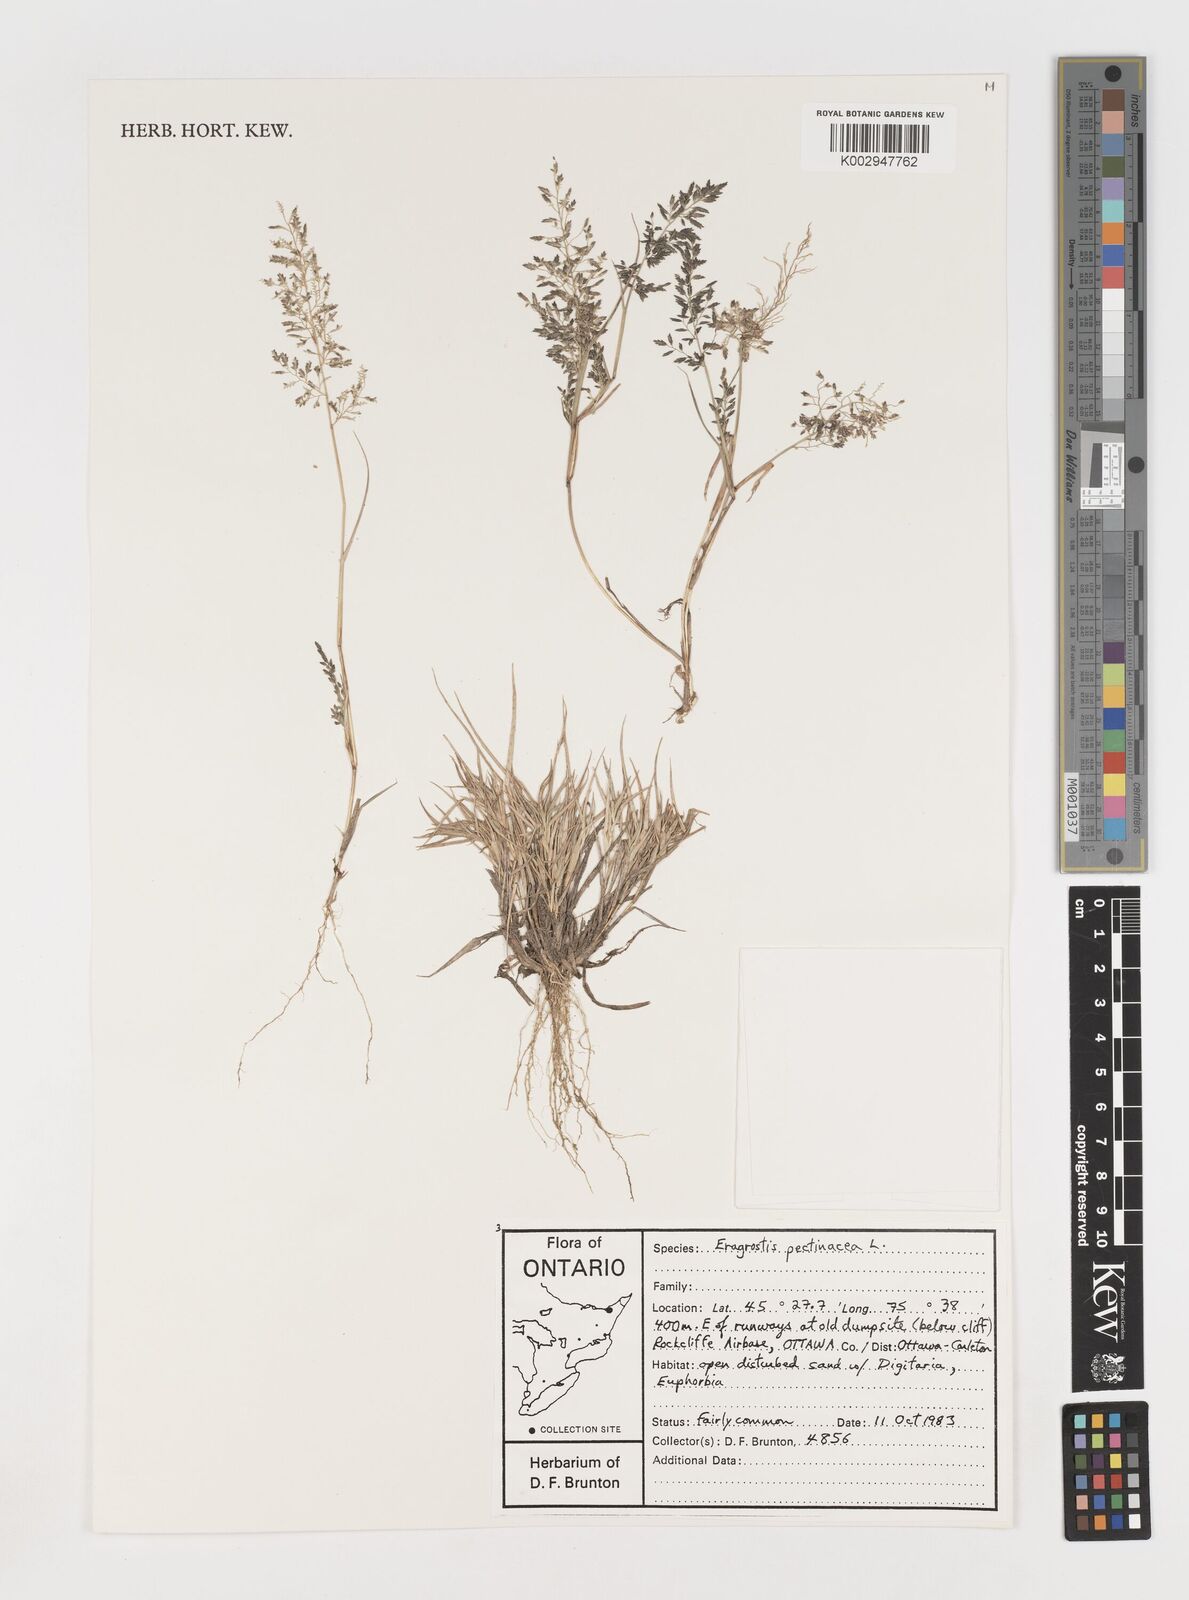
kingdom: Plantae
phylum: Tracheophyta
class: Liliopsida
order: Poales
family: Poaceae
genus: Eragrostis
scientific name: Eragrostis pectinacea
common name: Tufted lovegrass
